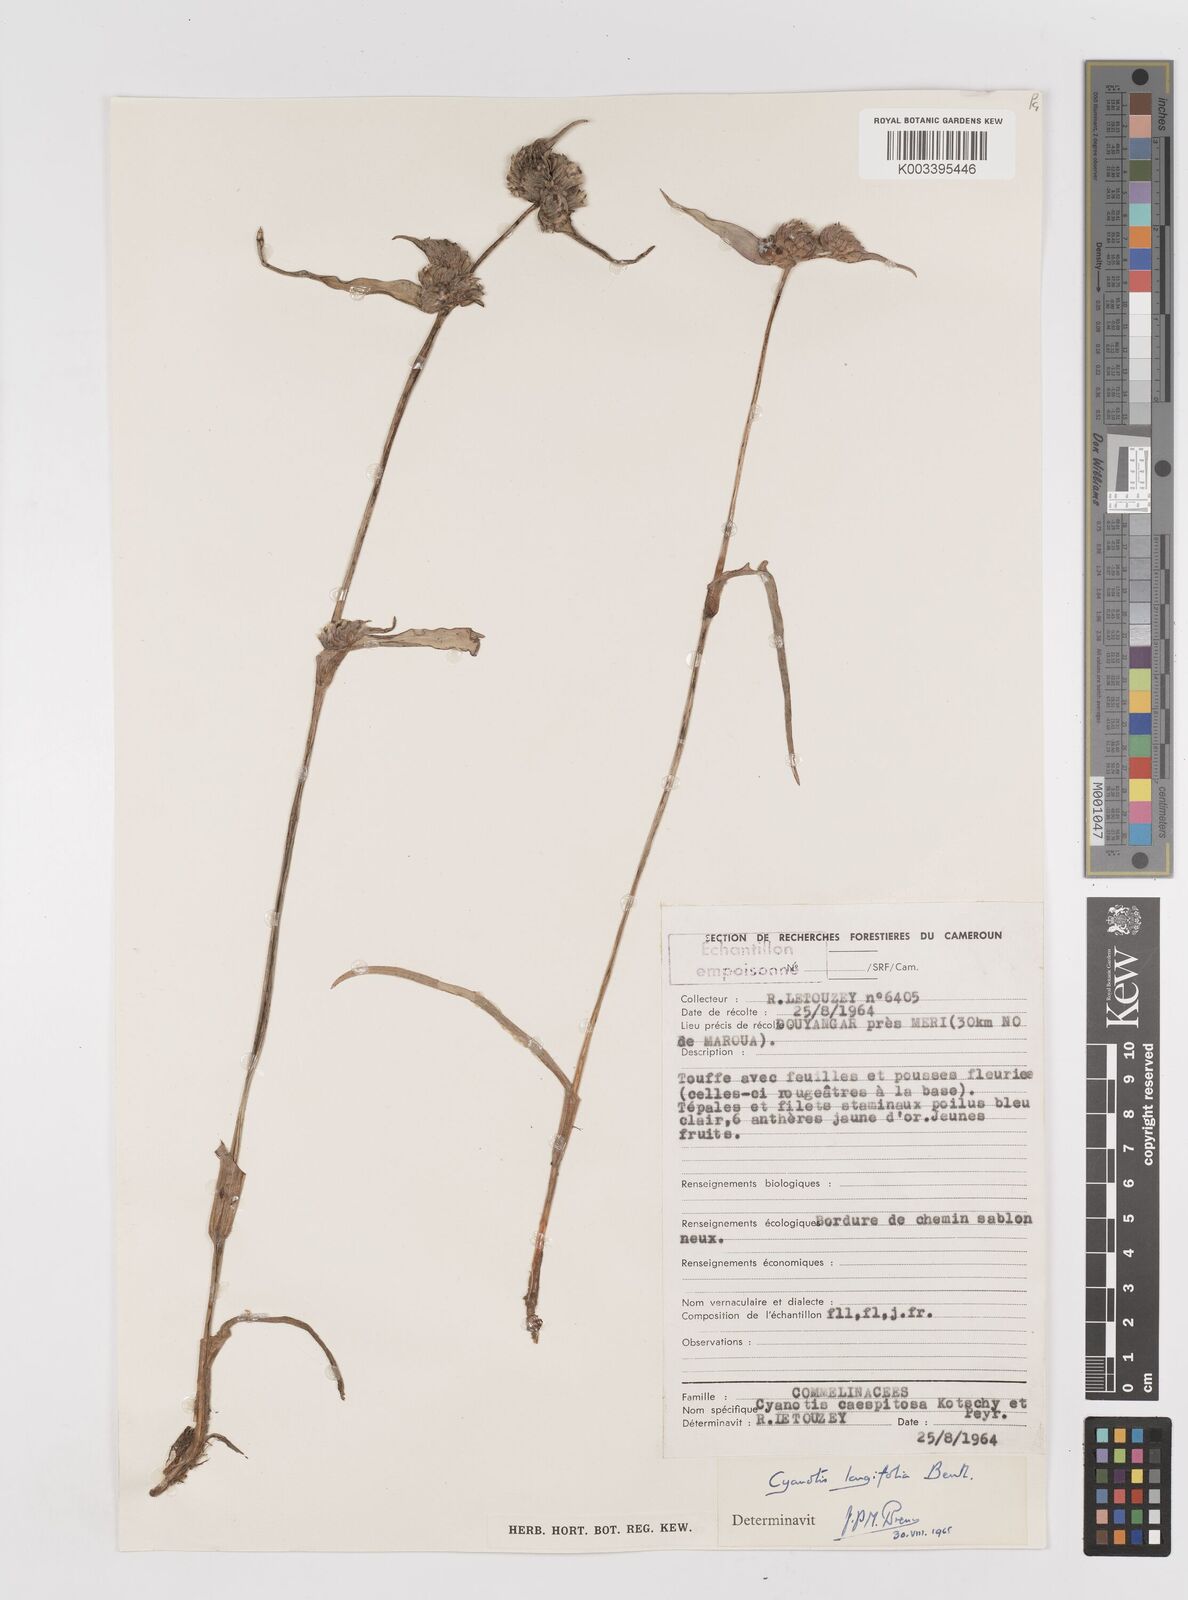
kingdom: Plantae
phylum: Tracheophyta
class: Liliopsida
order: Commelinales
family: Commelinaceae
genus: Cyanotis
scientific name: Cyanotis longifolia
